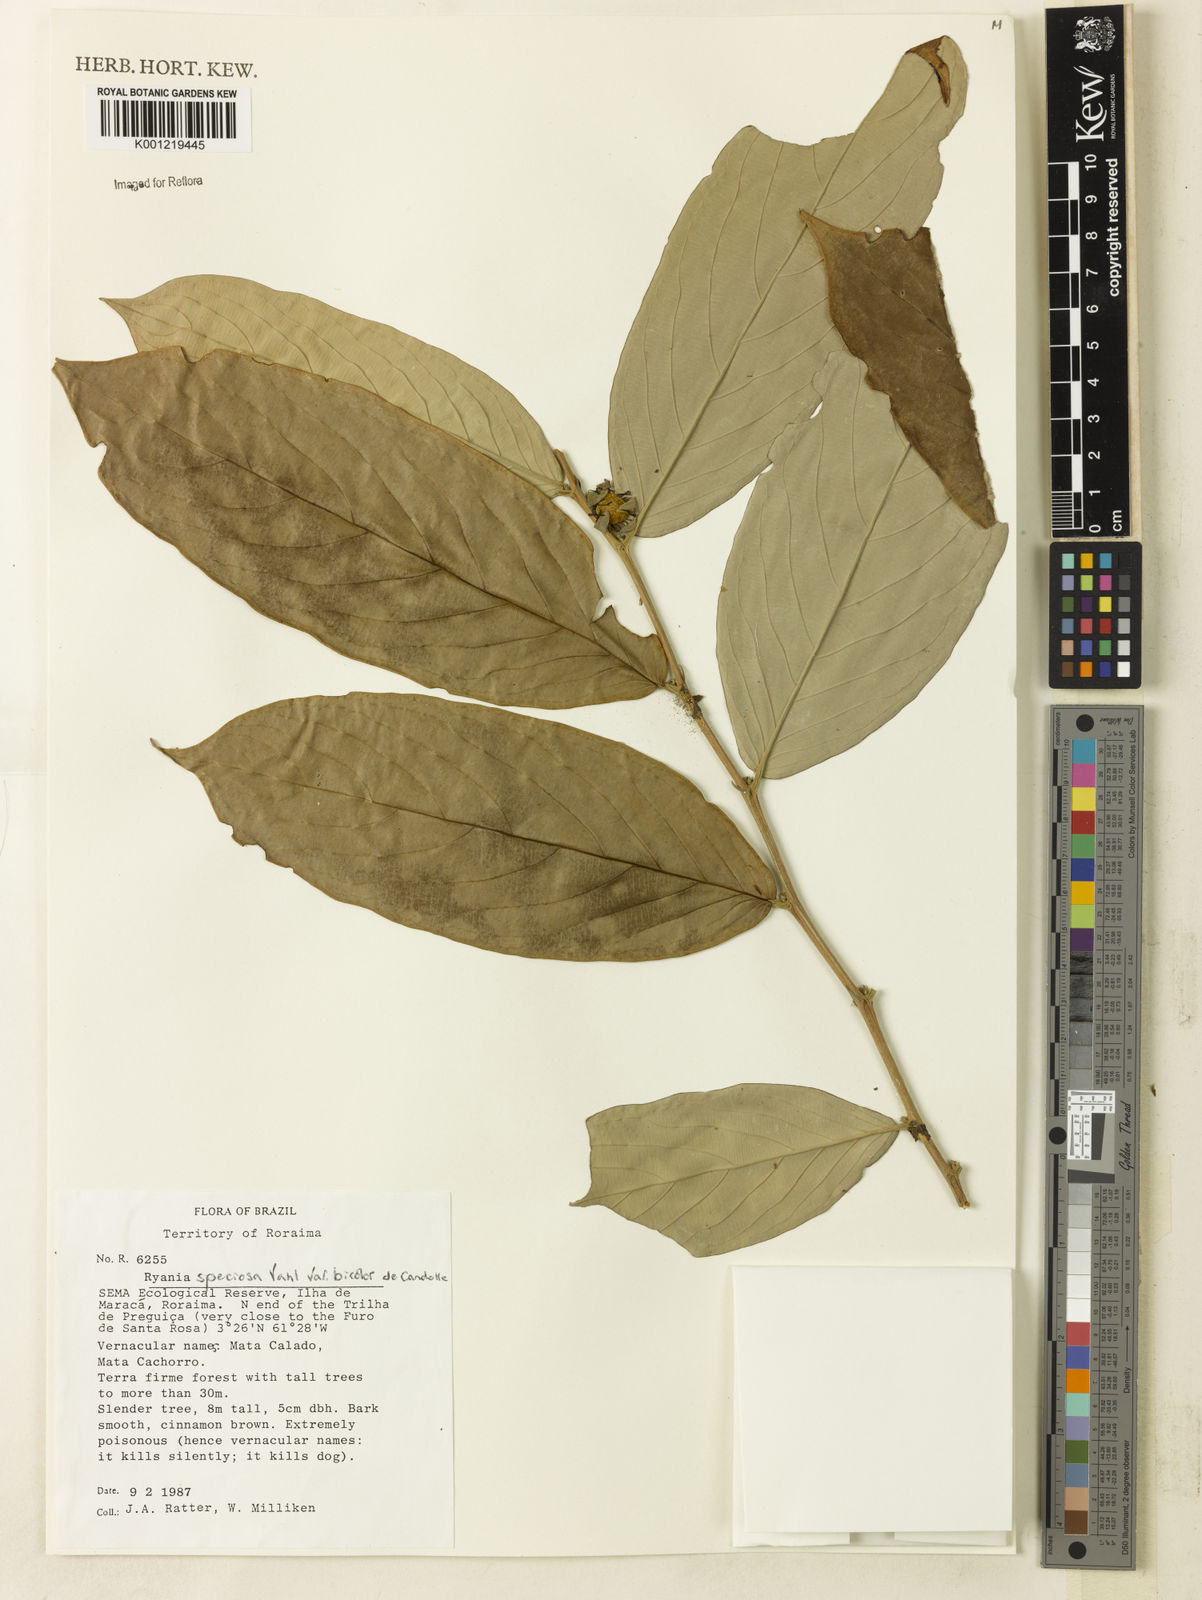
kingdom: Plantae
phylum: Tracheophyta
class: Magnoliopsida
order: Malpighiales
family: Salicaceae
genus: Ryania
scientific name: Ryania speciosa
